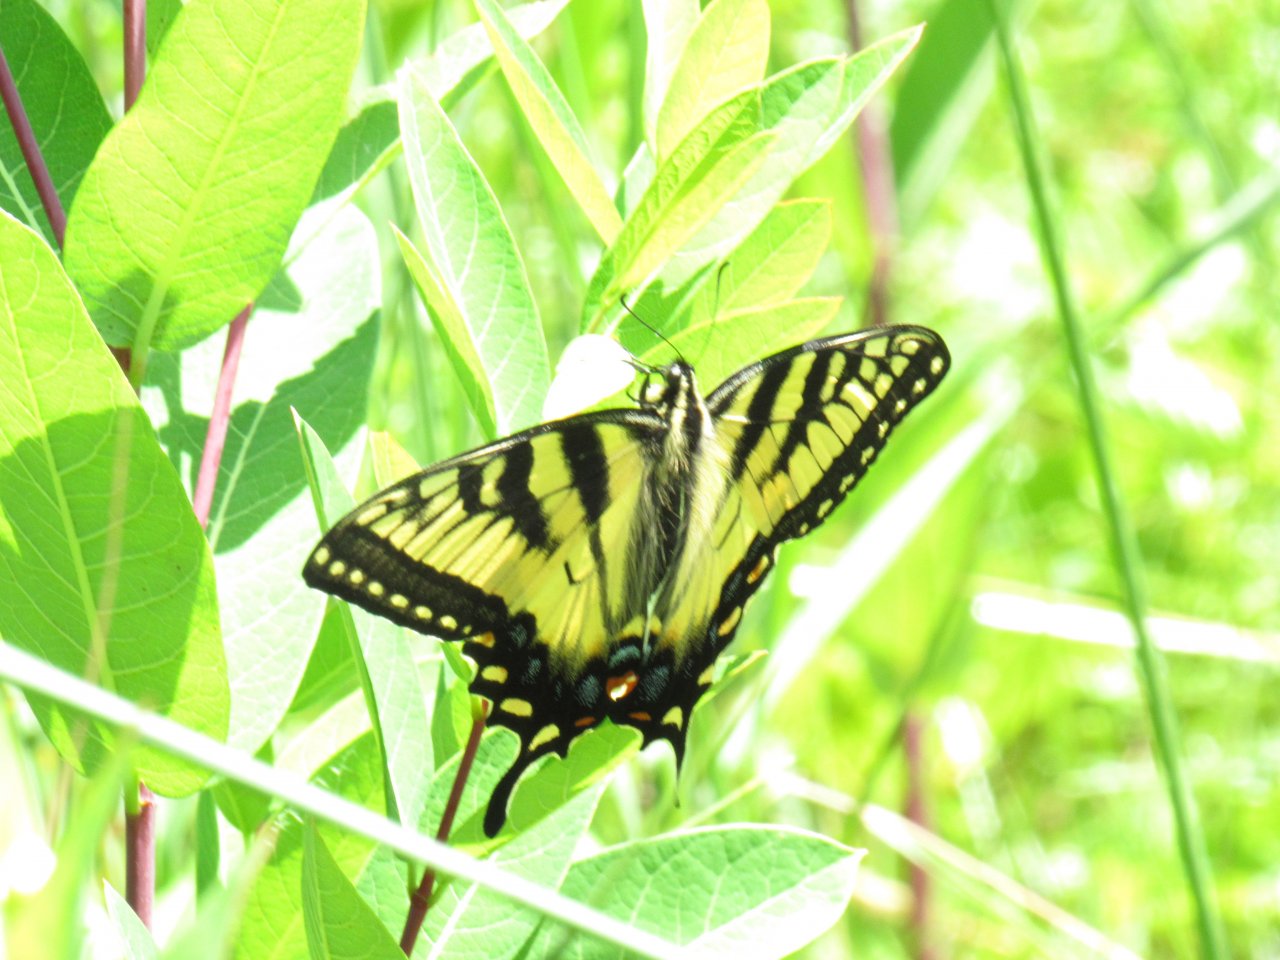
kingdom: Animalia
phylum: Arthropoda
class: Insecta
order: Lepidoptera
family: Papilionidae
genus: Pterourus
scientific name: Pterourus
